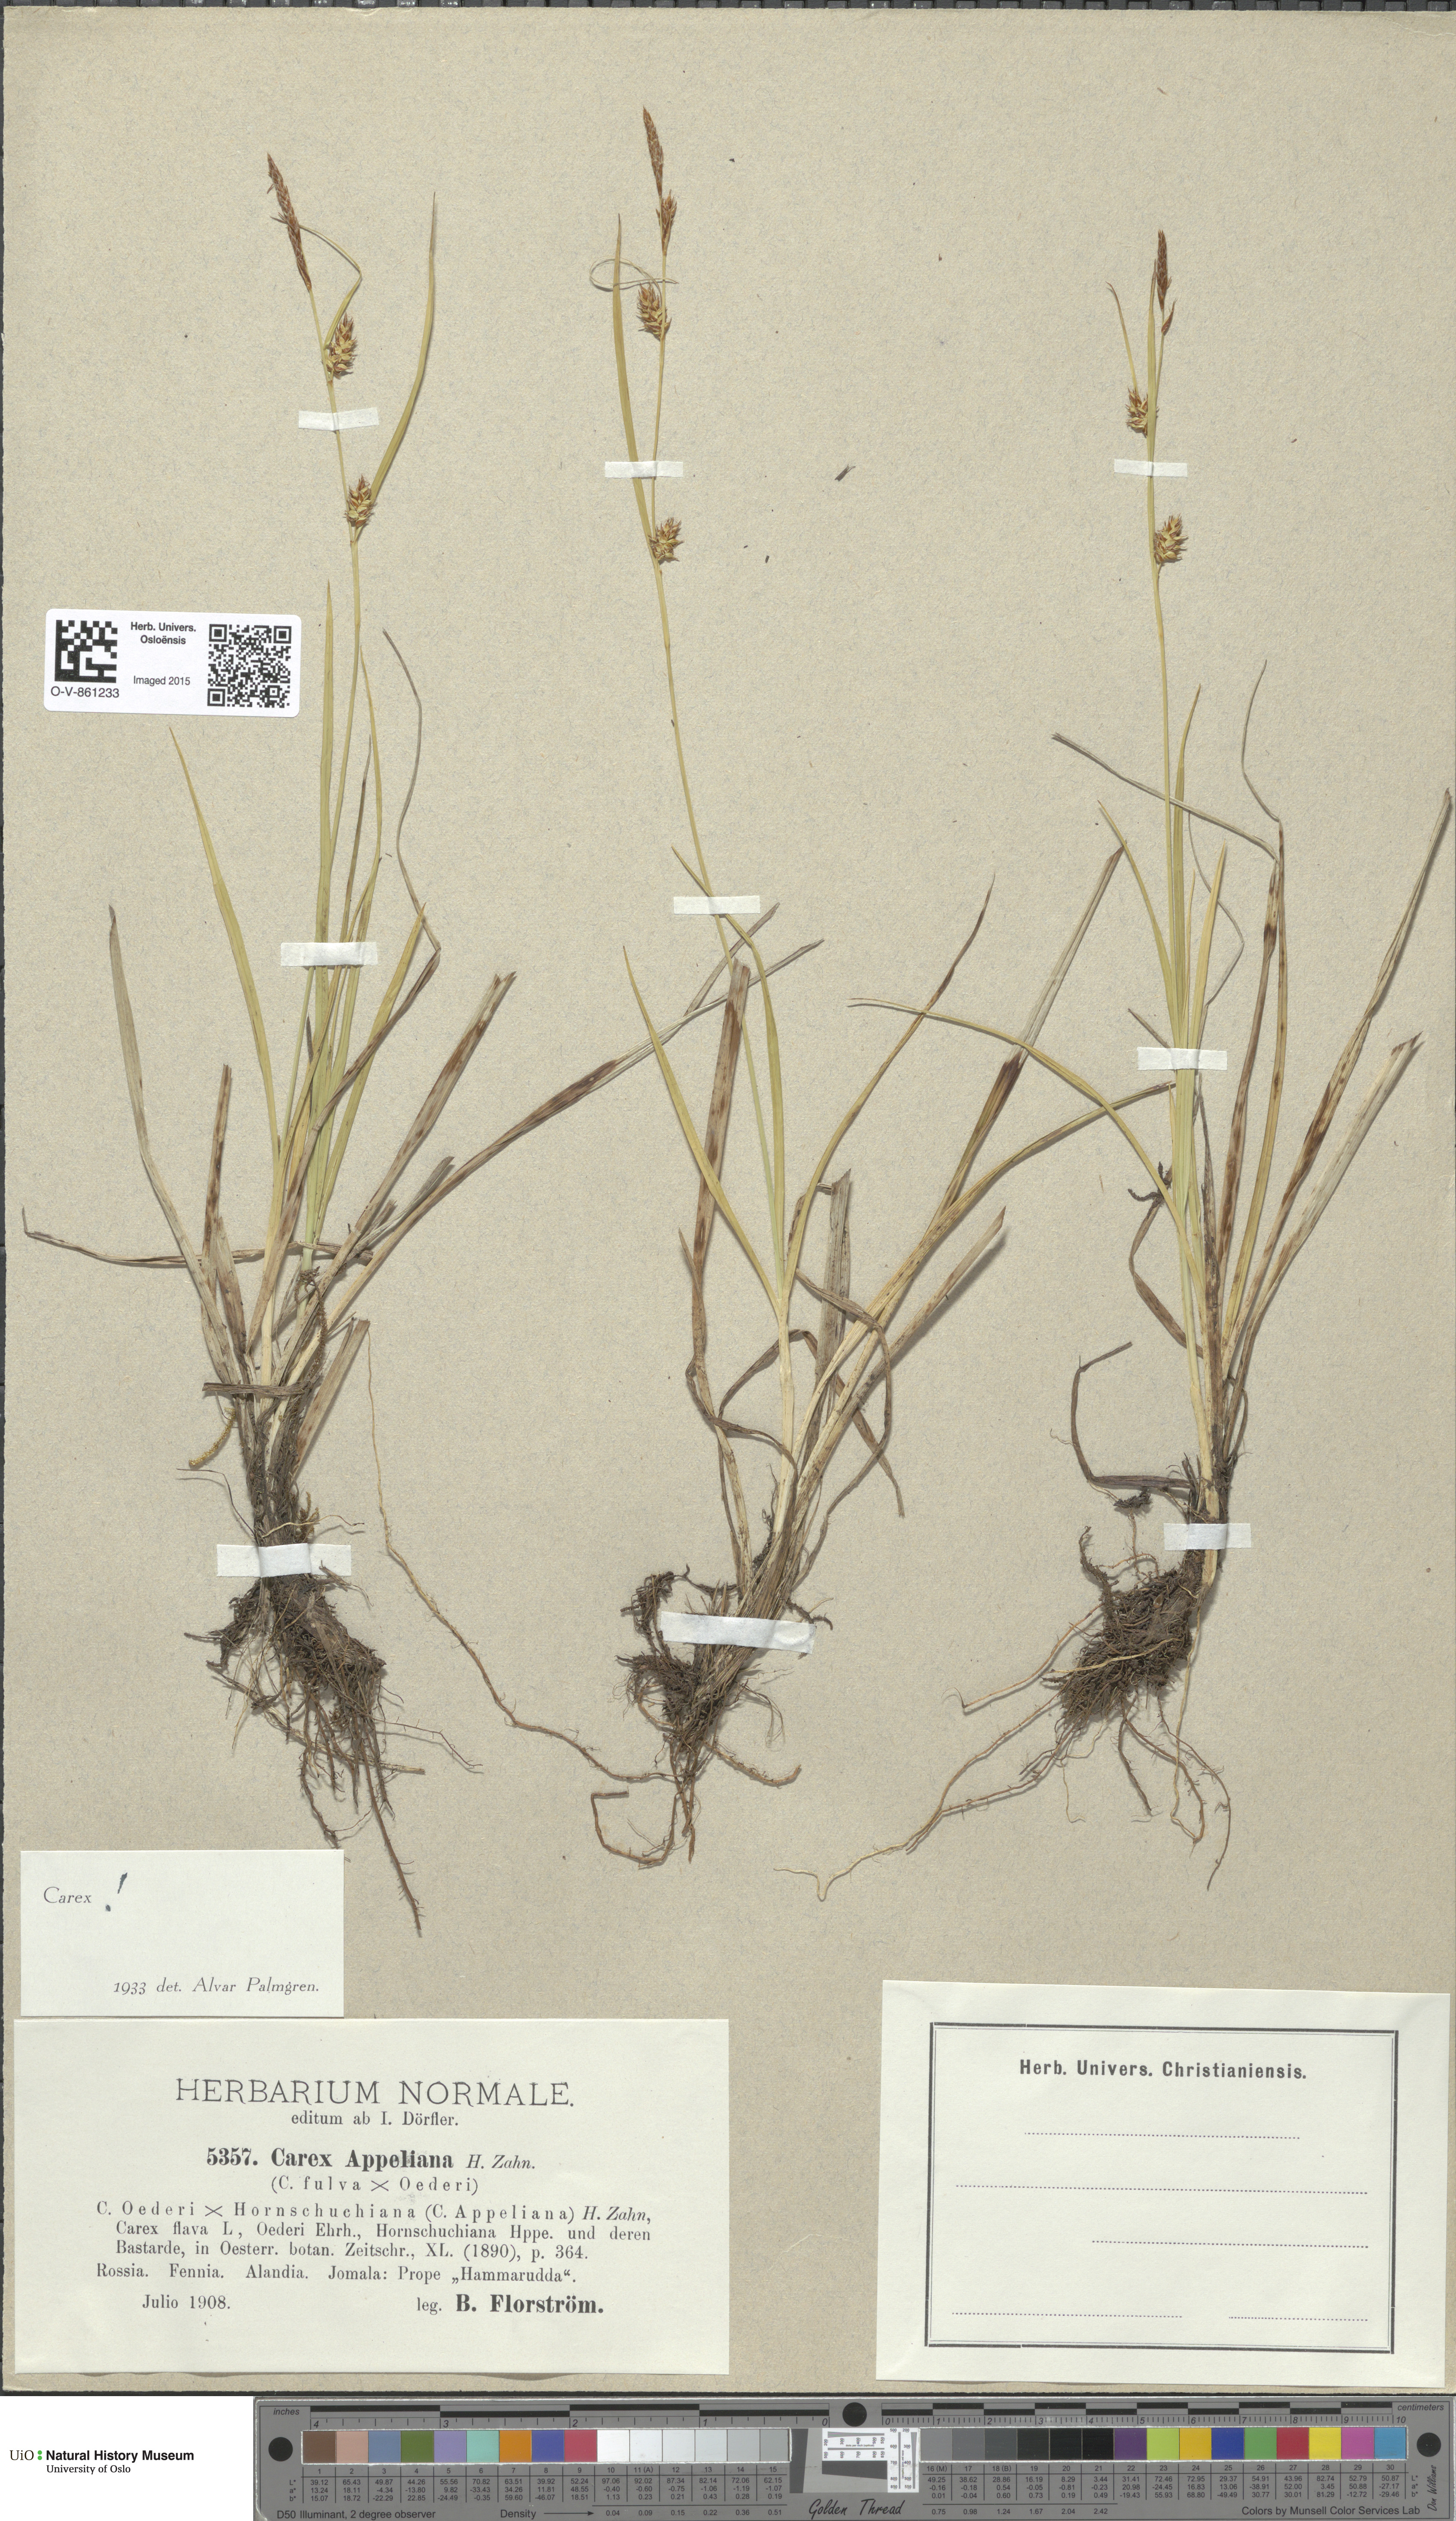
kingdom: Plantae
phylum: Tracheophyta
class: Liliopsida
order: Poales
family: Cyperaceae
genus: Carex
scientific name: Carex
